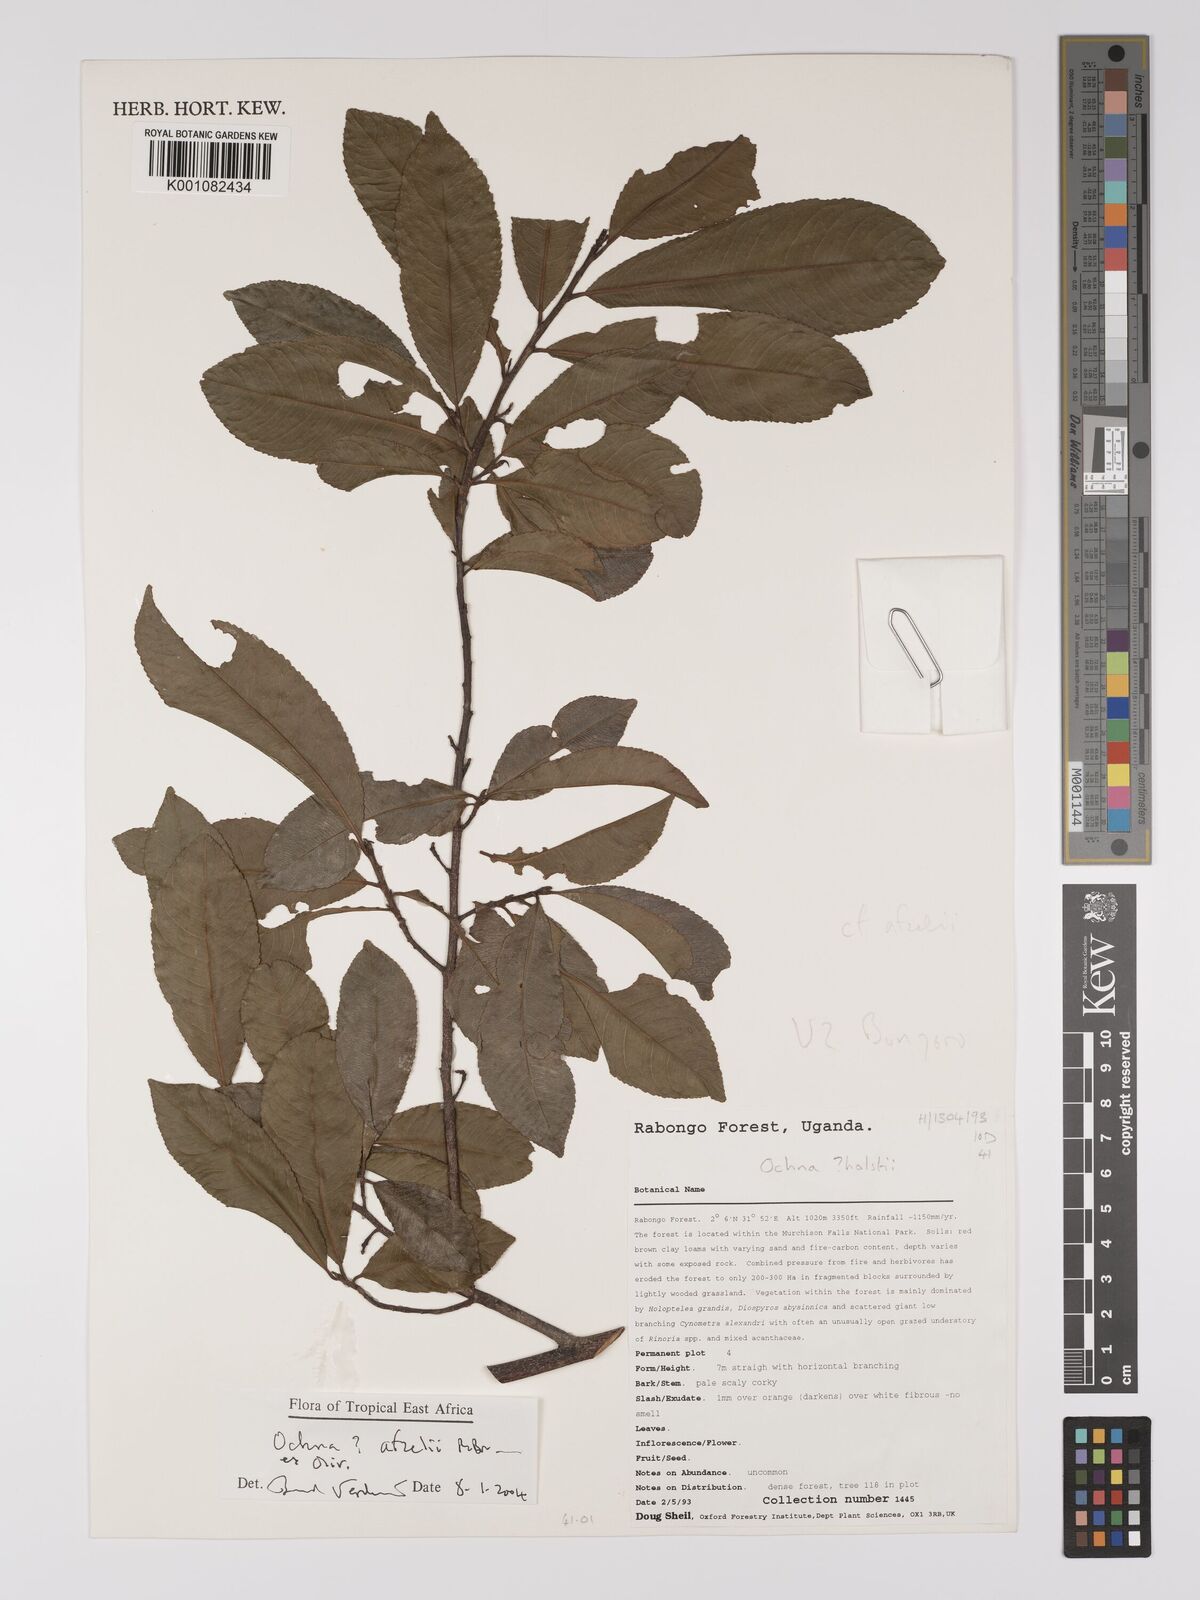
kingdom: Plantae
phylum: Tracheophyta
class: Magnoliopsida
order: Malpighiales
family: Ochnaceae
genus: Ochna
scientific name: Ochna afzelii
